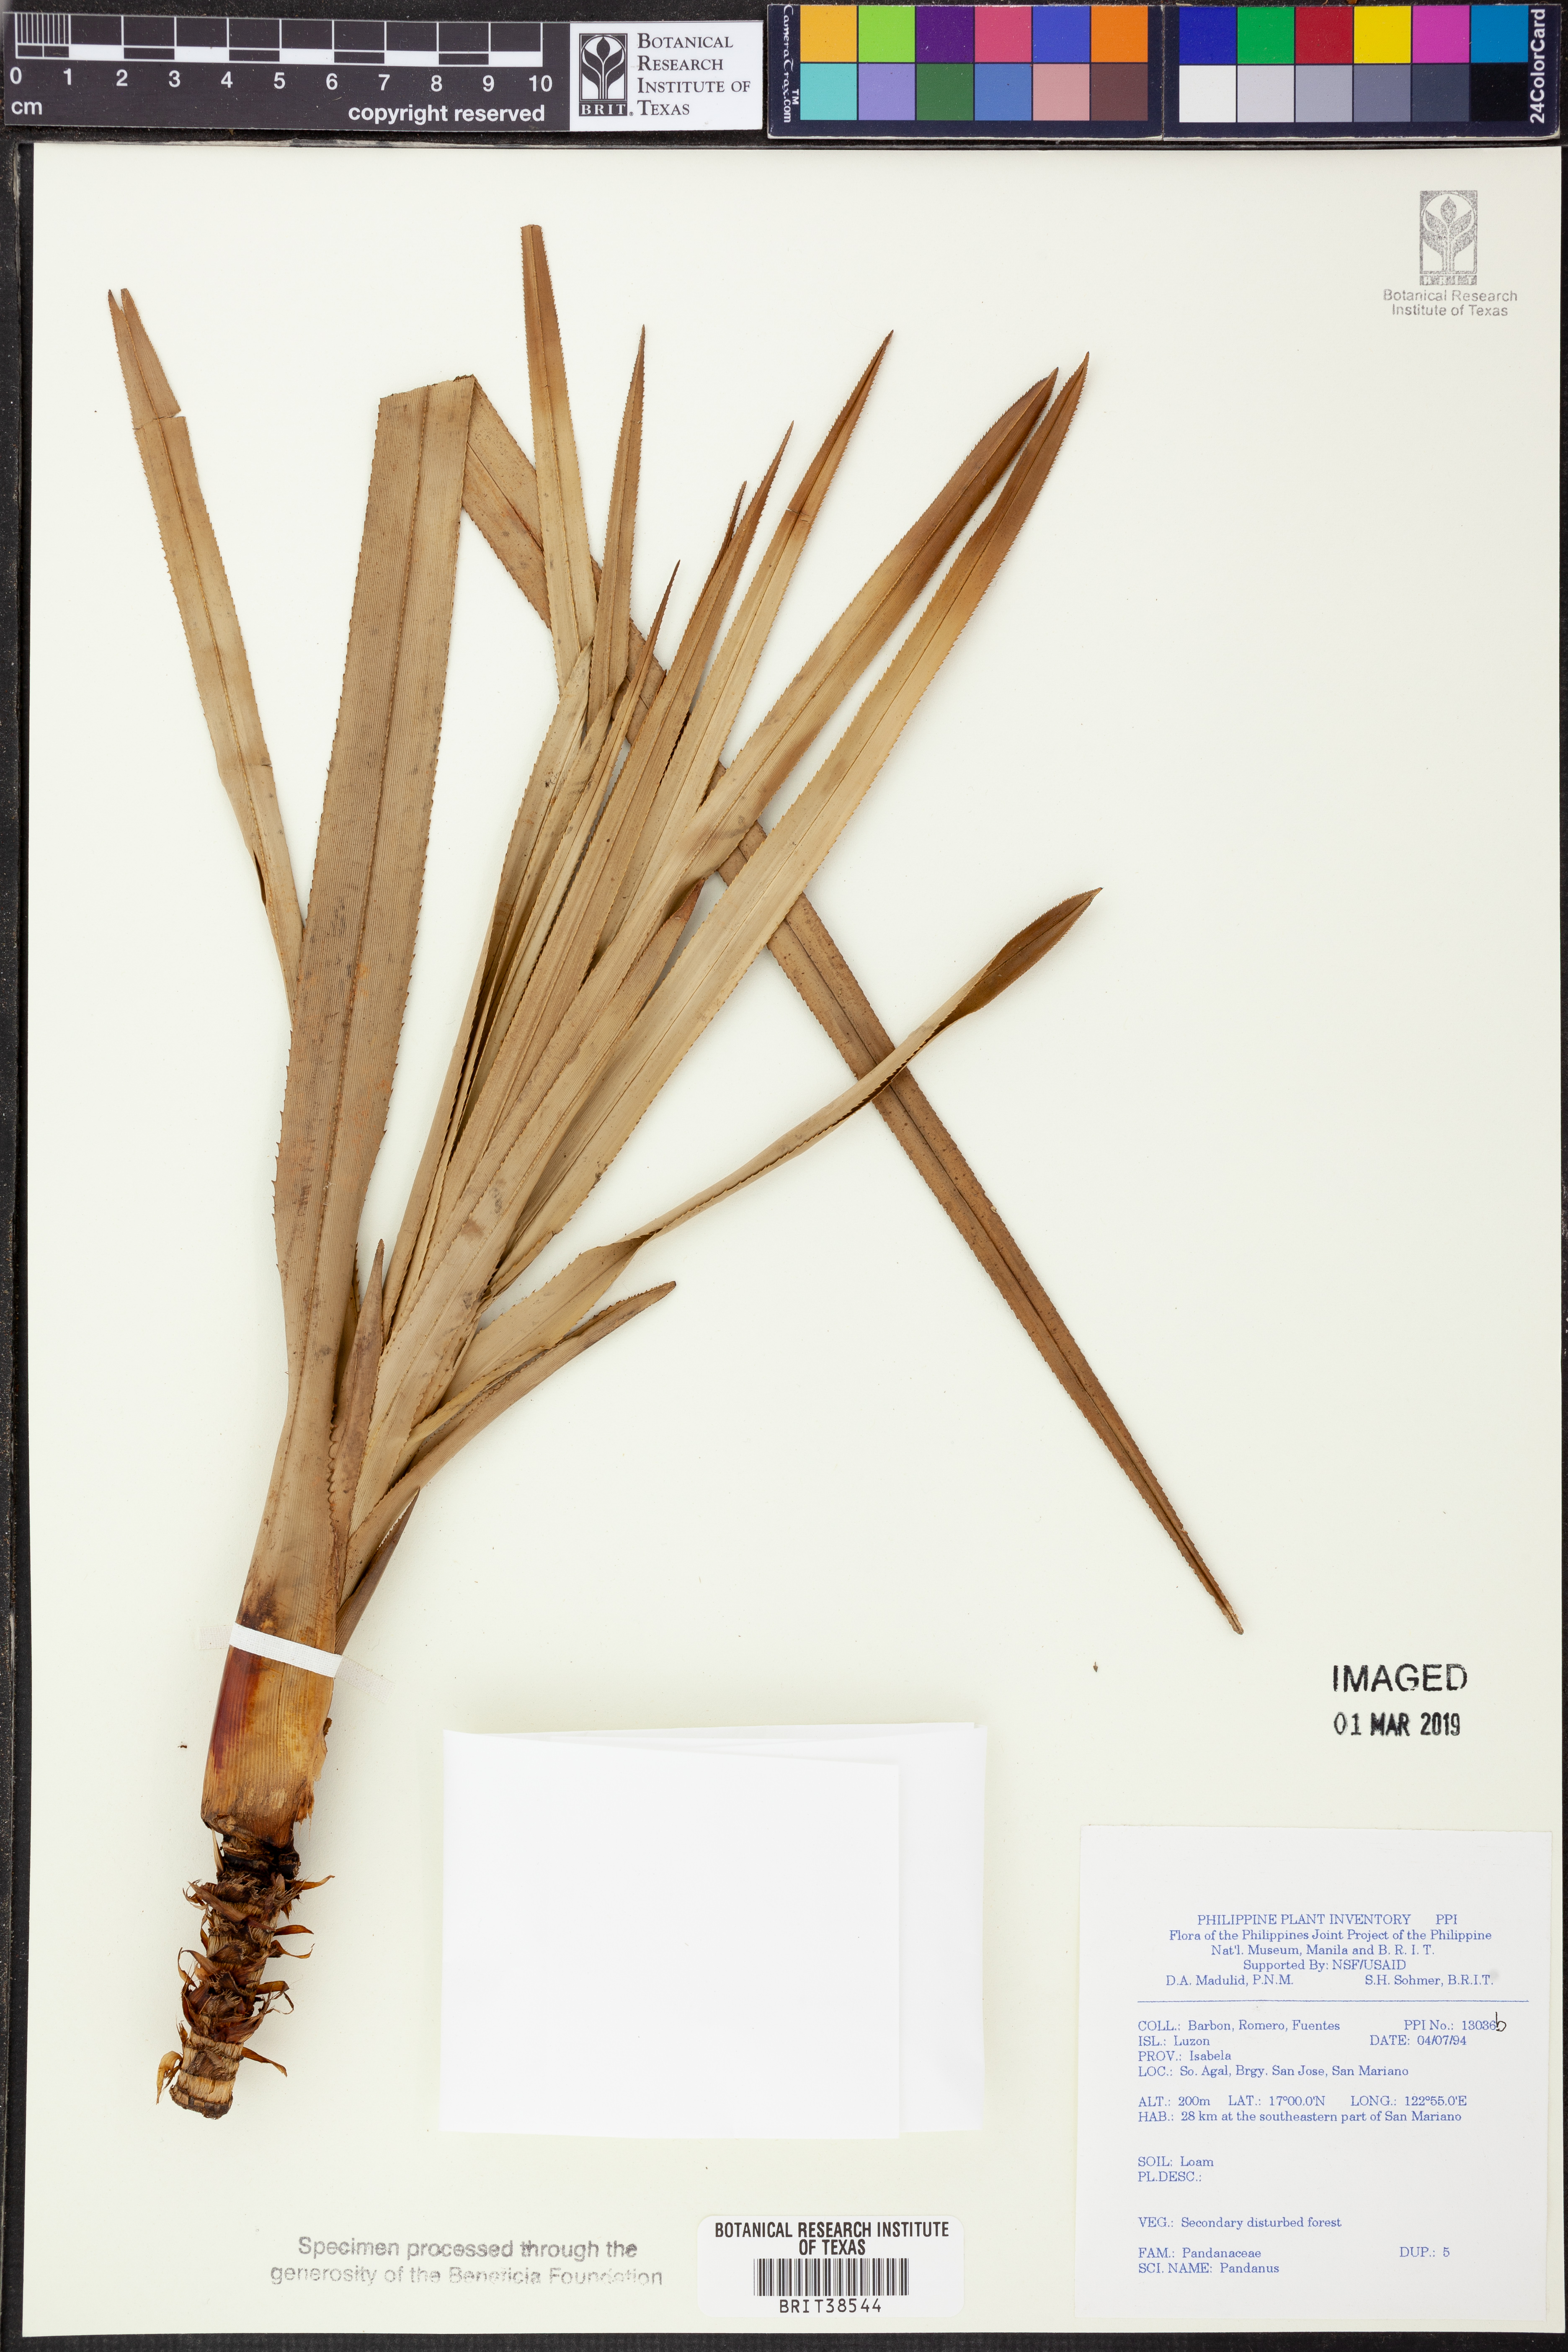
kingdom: Plantae
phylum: Tracheophyta
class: Liliopsida
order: Pandanales
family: Pandanaceae
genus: Pandanus
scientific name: Pandanus
